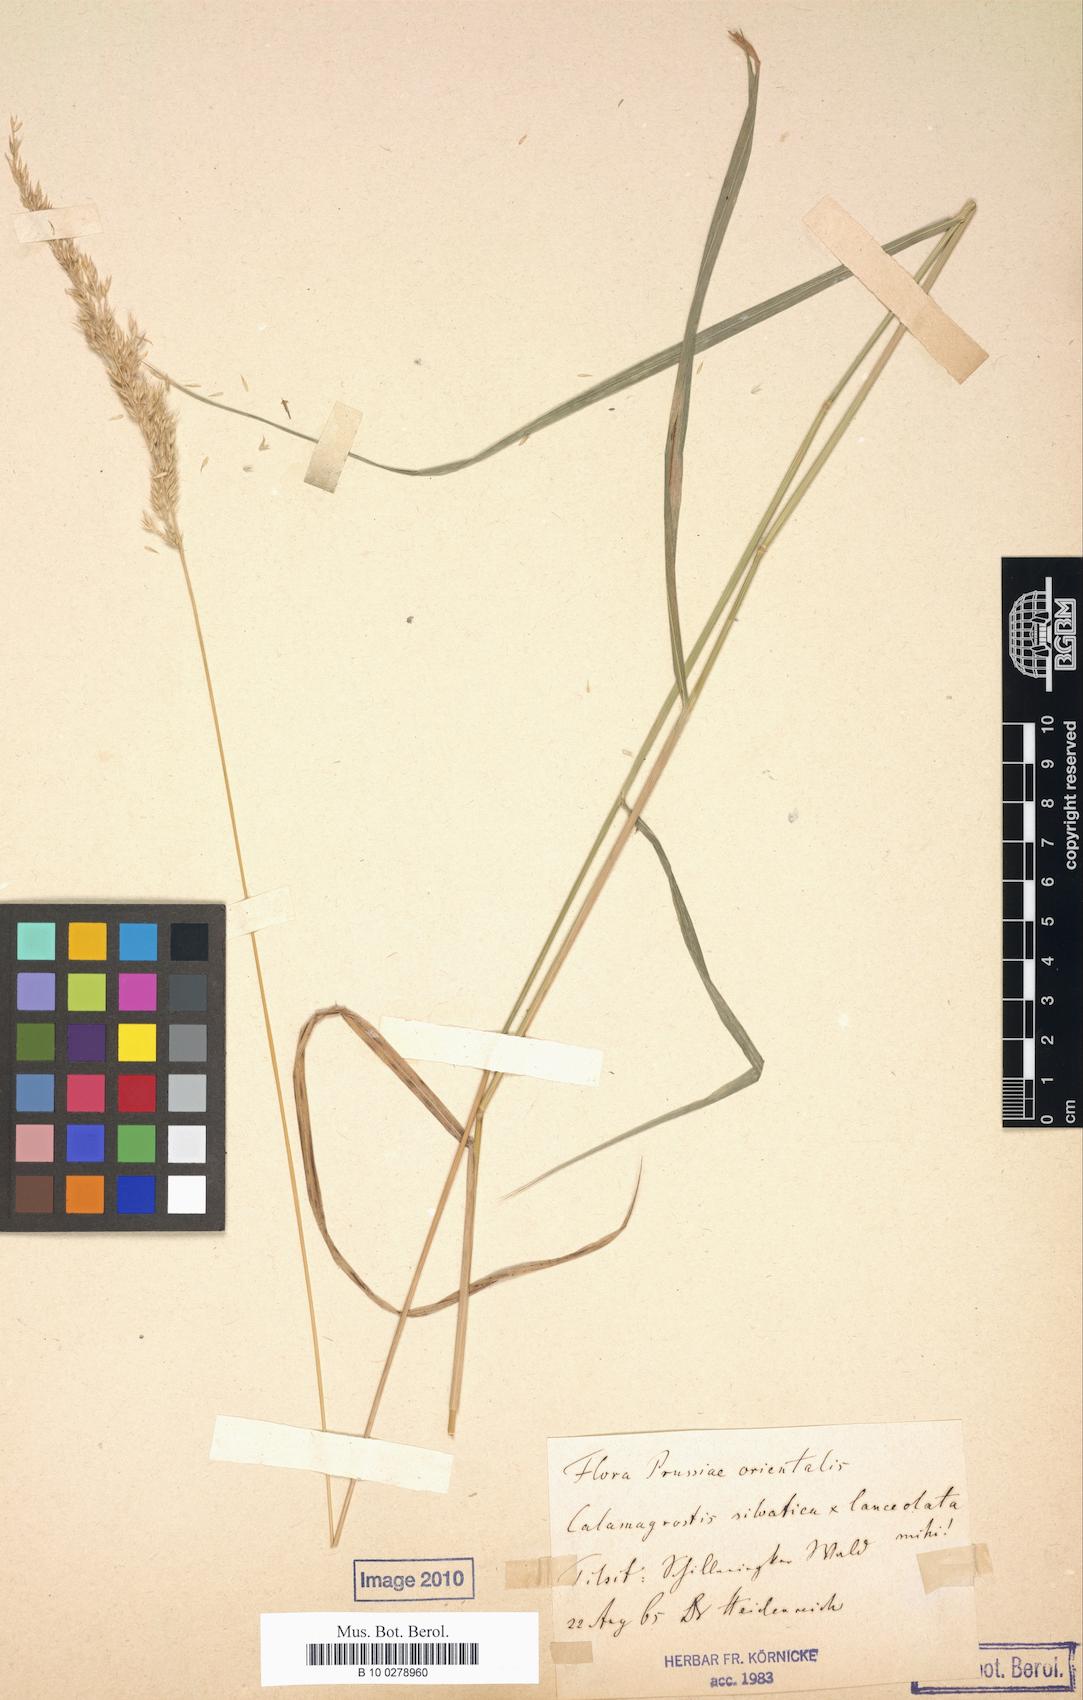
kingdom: Plantae
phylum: Tracheophyta
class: Liliopsida
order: Poales
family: Poaceae
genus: Calamagrostis
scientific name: Calamagrostis villosa
